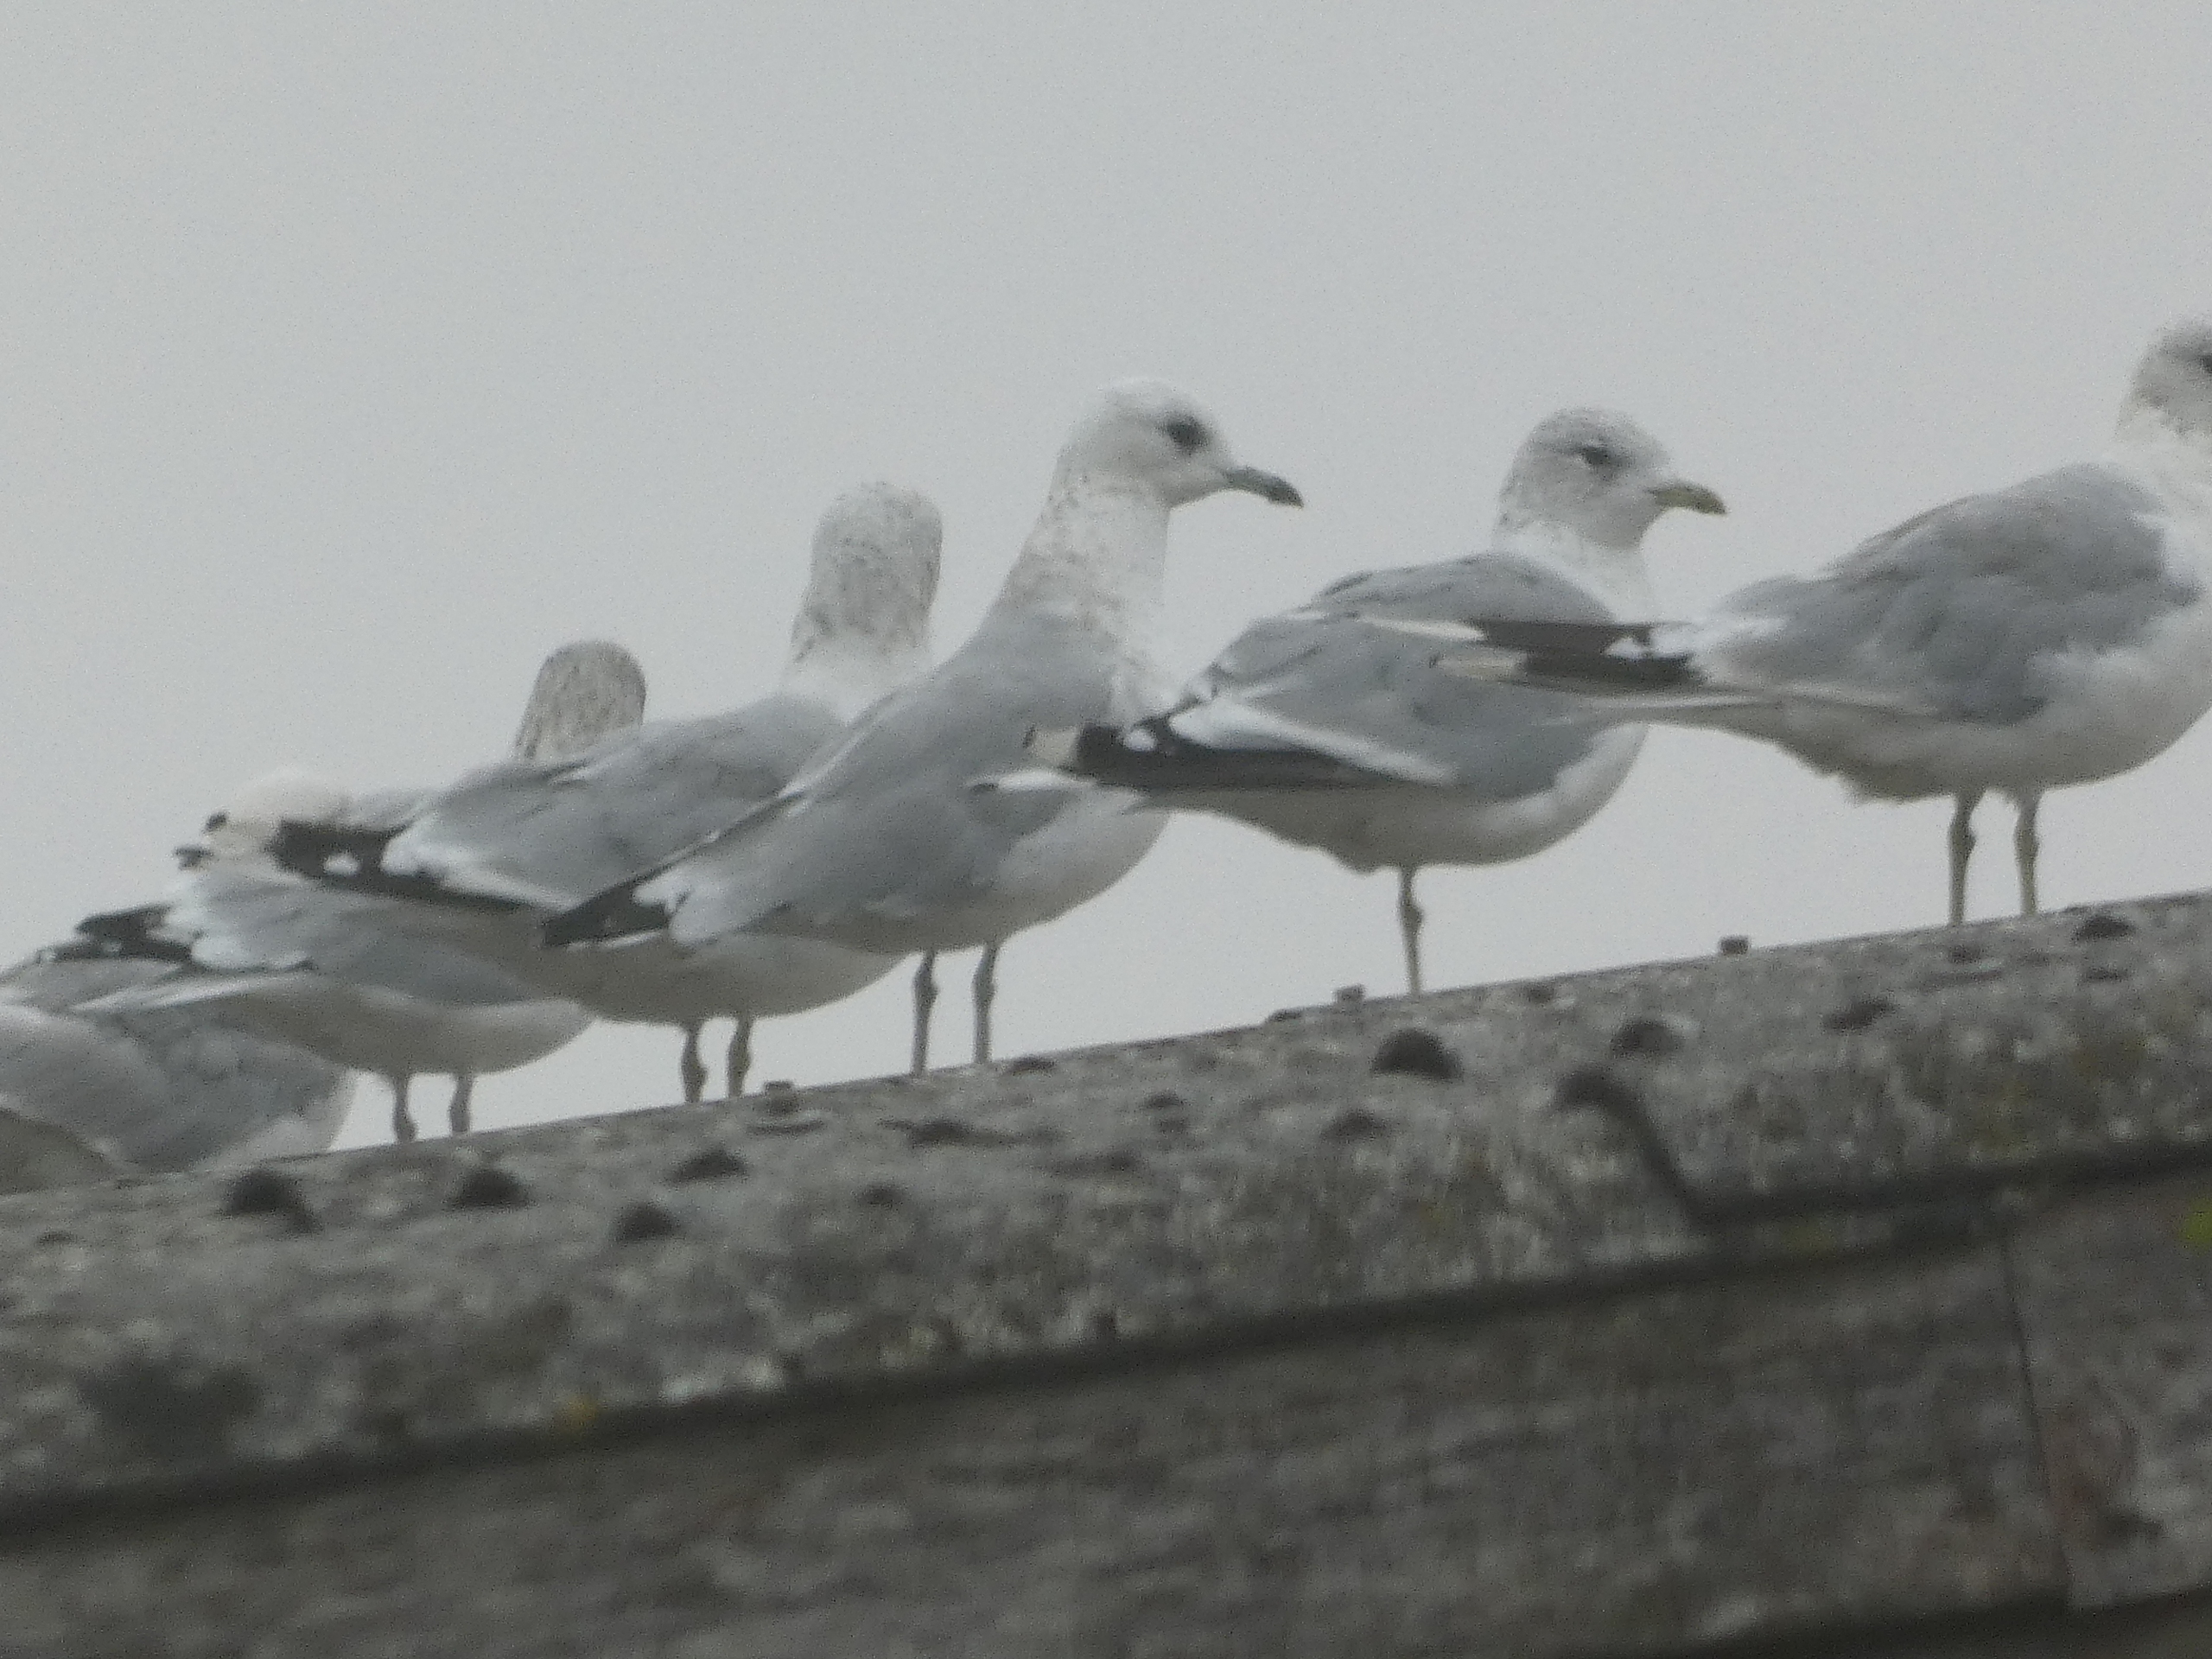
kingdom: Animalia
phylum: Chordata
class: Aves
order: Charadriiformes
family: Laridae
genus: Larus
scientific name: Larus canus
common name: Stormmåge
